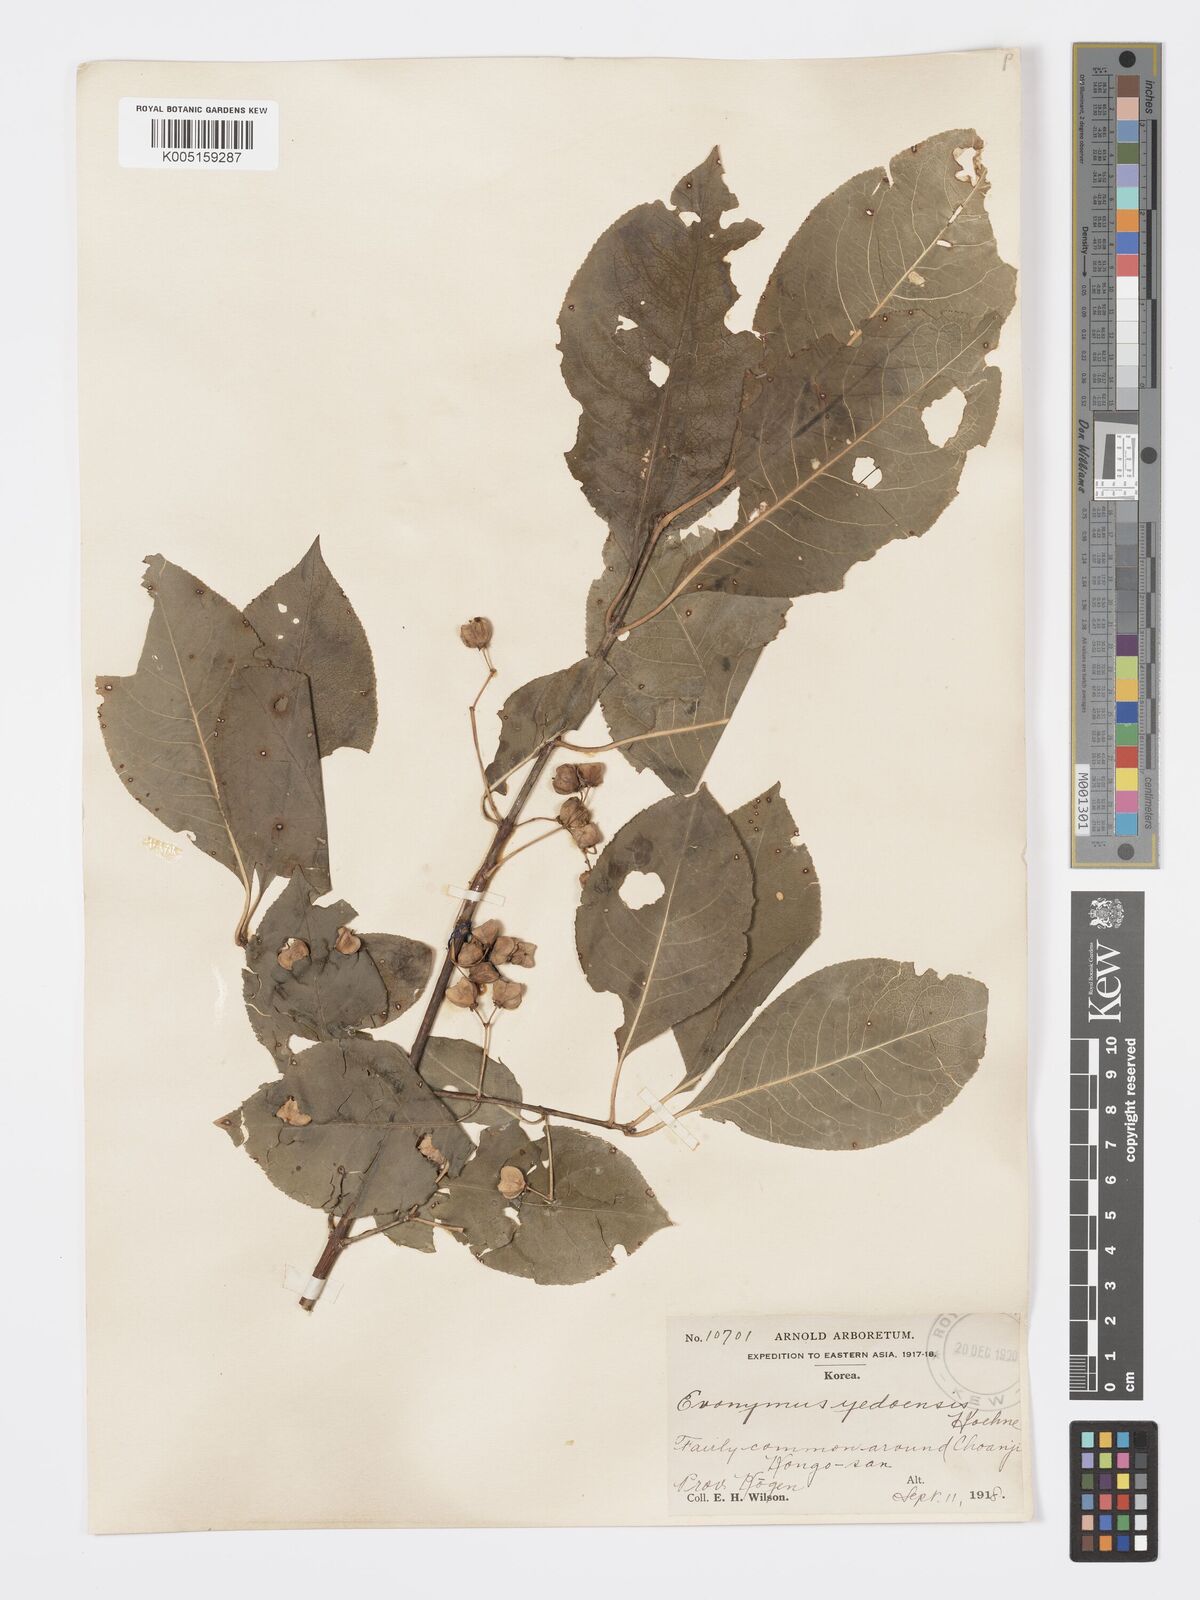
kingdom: Plantae
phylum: Tracheophyta
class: Magnoliopsida
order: Celastrales
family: Celastraceae
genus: Euonymus
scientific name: Euonymus hamiltonianus
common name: Hamilton's spindletree
